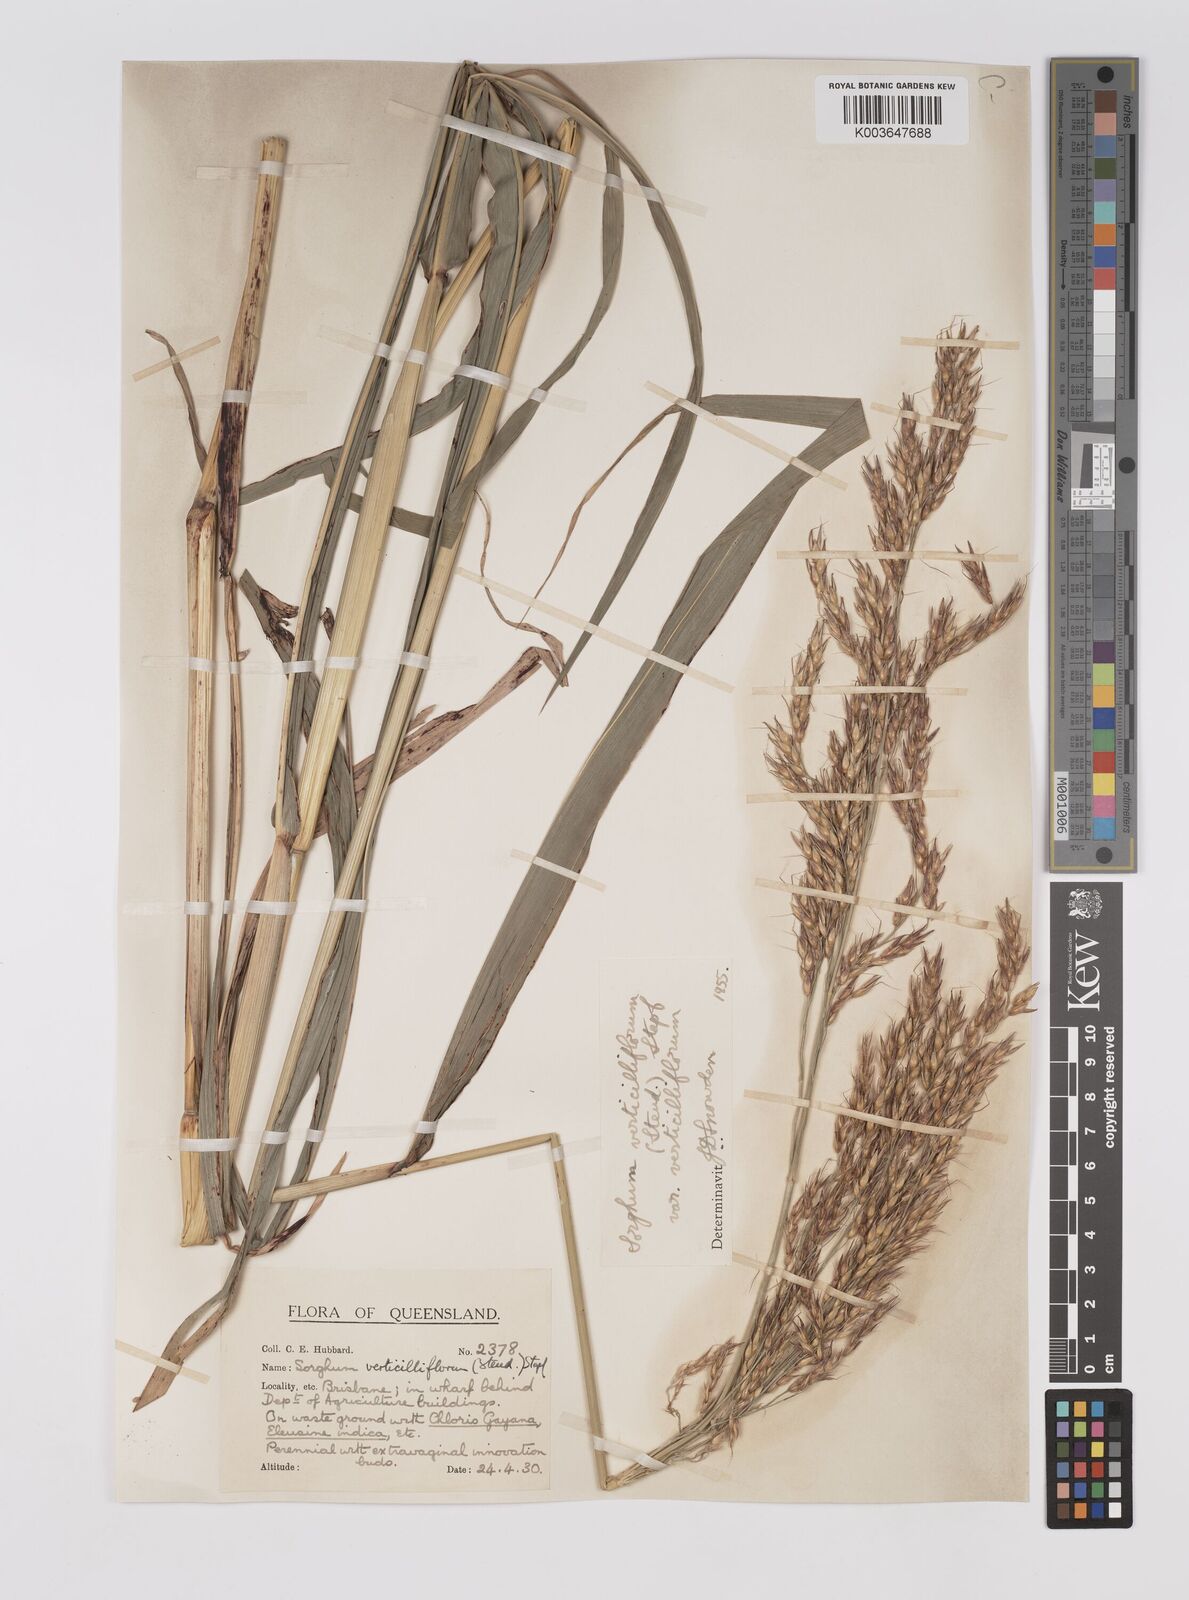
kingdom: Plantae
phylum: Tracheophyta
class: Liliopsida
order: Poales
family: Poaceae
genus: Sorghum
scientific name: Sorghum arundinaceum
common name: Sorghum
